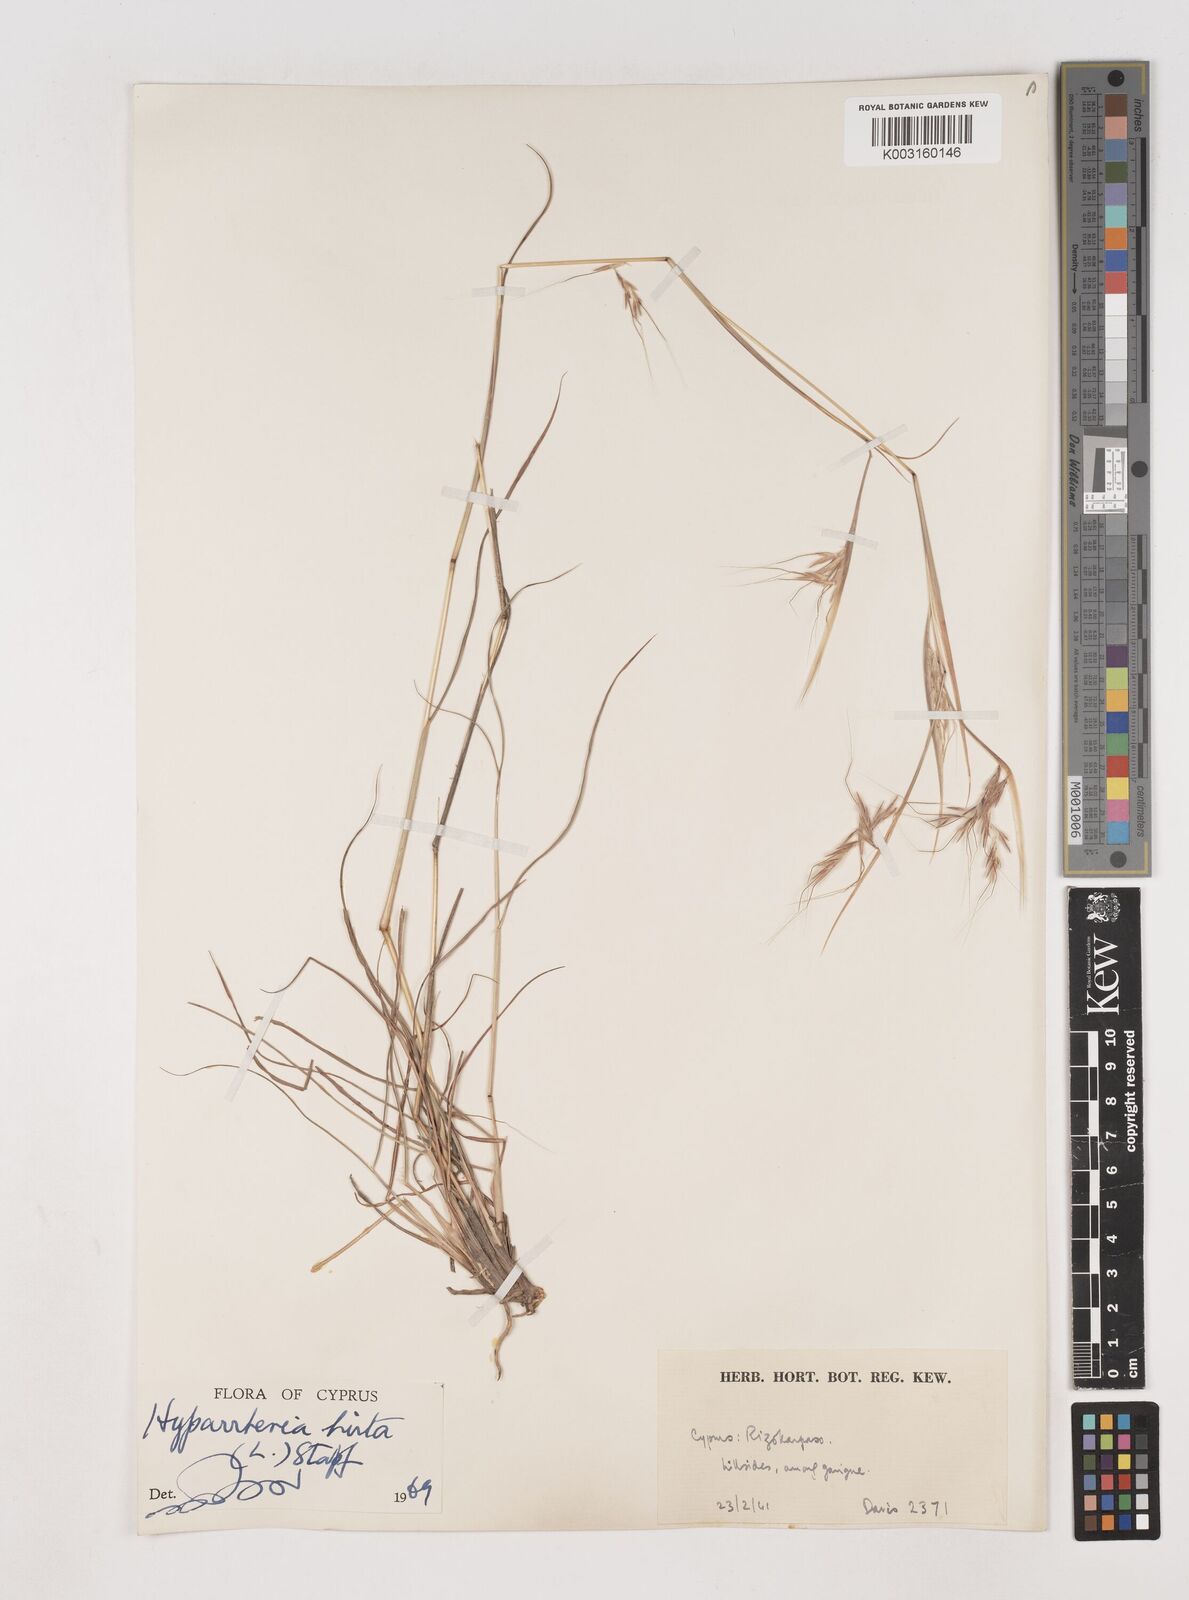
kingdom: Plantae
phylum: Tracheophyta
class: Liliopsida
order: Poales
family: Poaceae
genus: Hyparrhenia
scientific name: Hyparrhenia hirta
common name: Thatching grass
